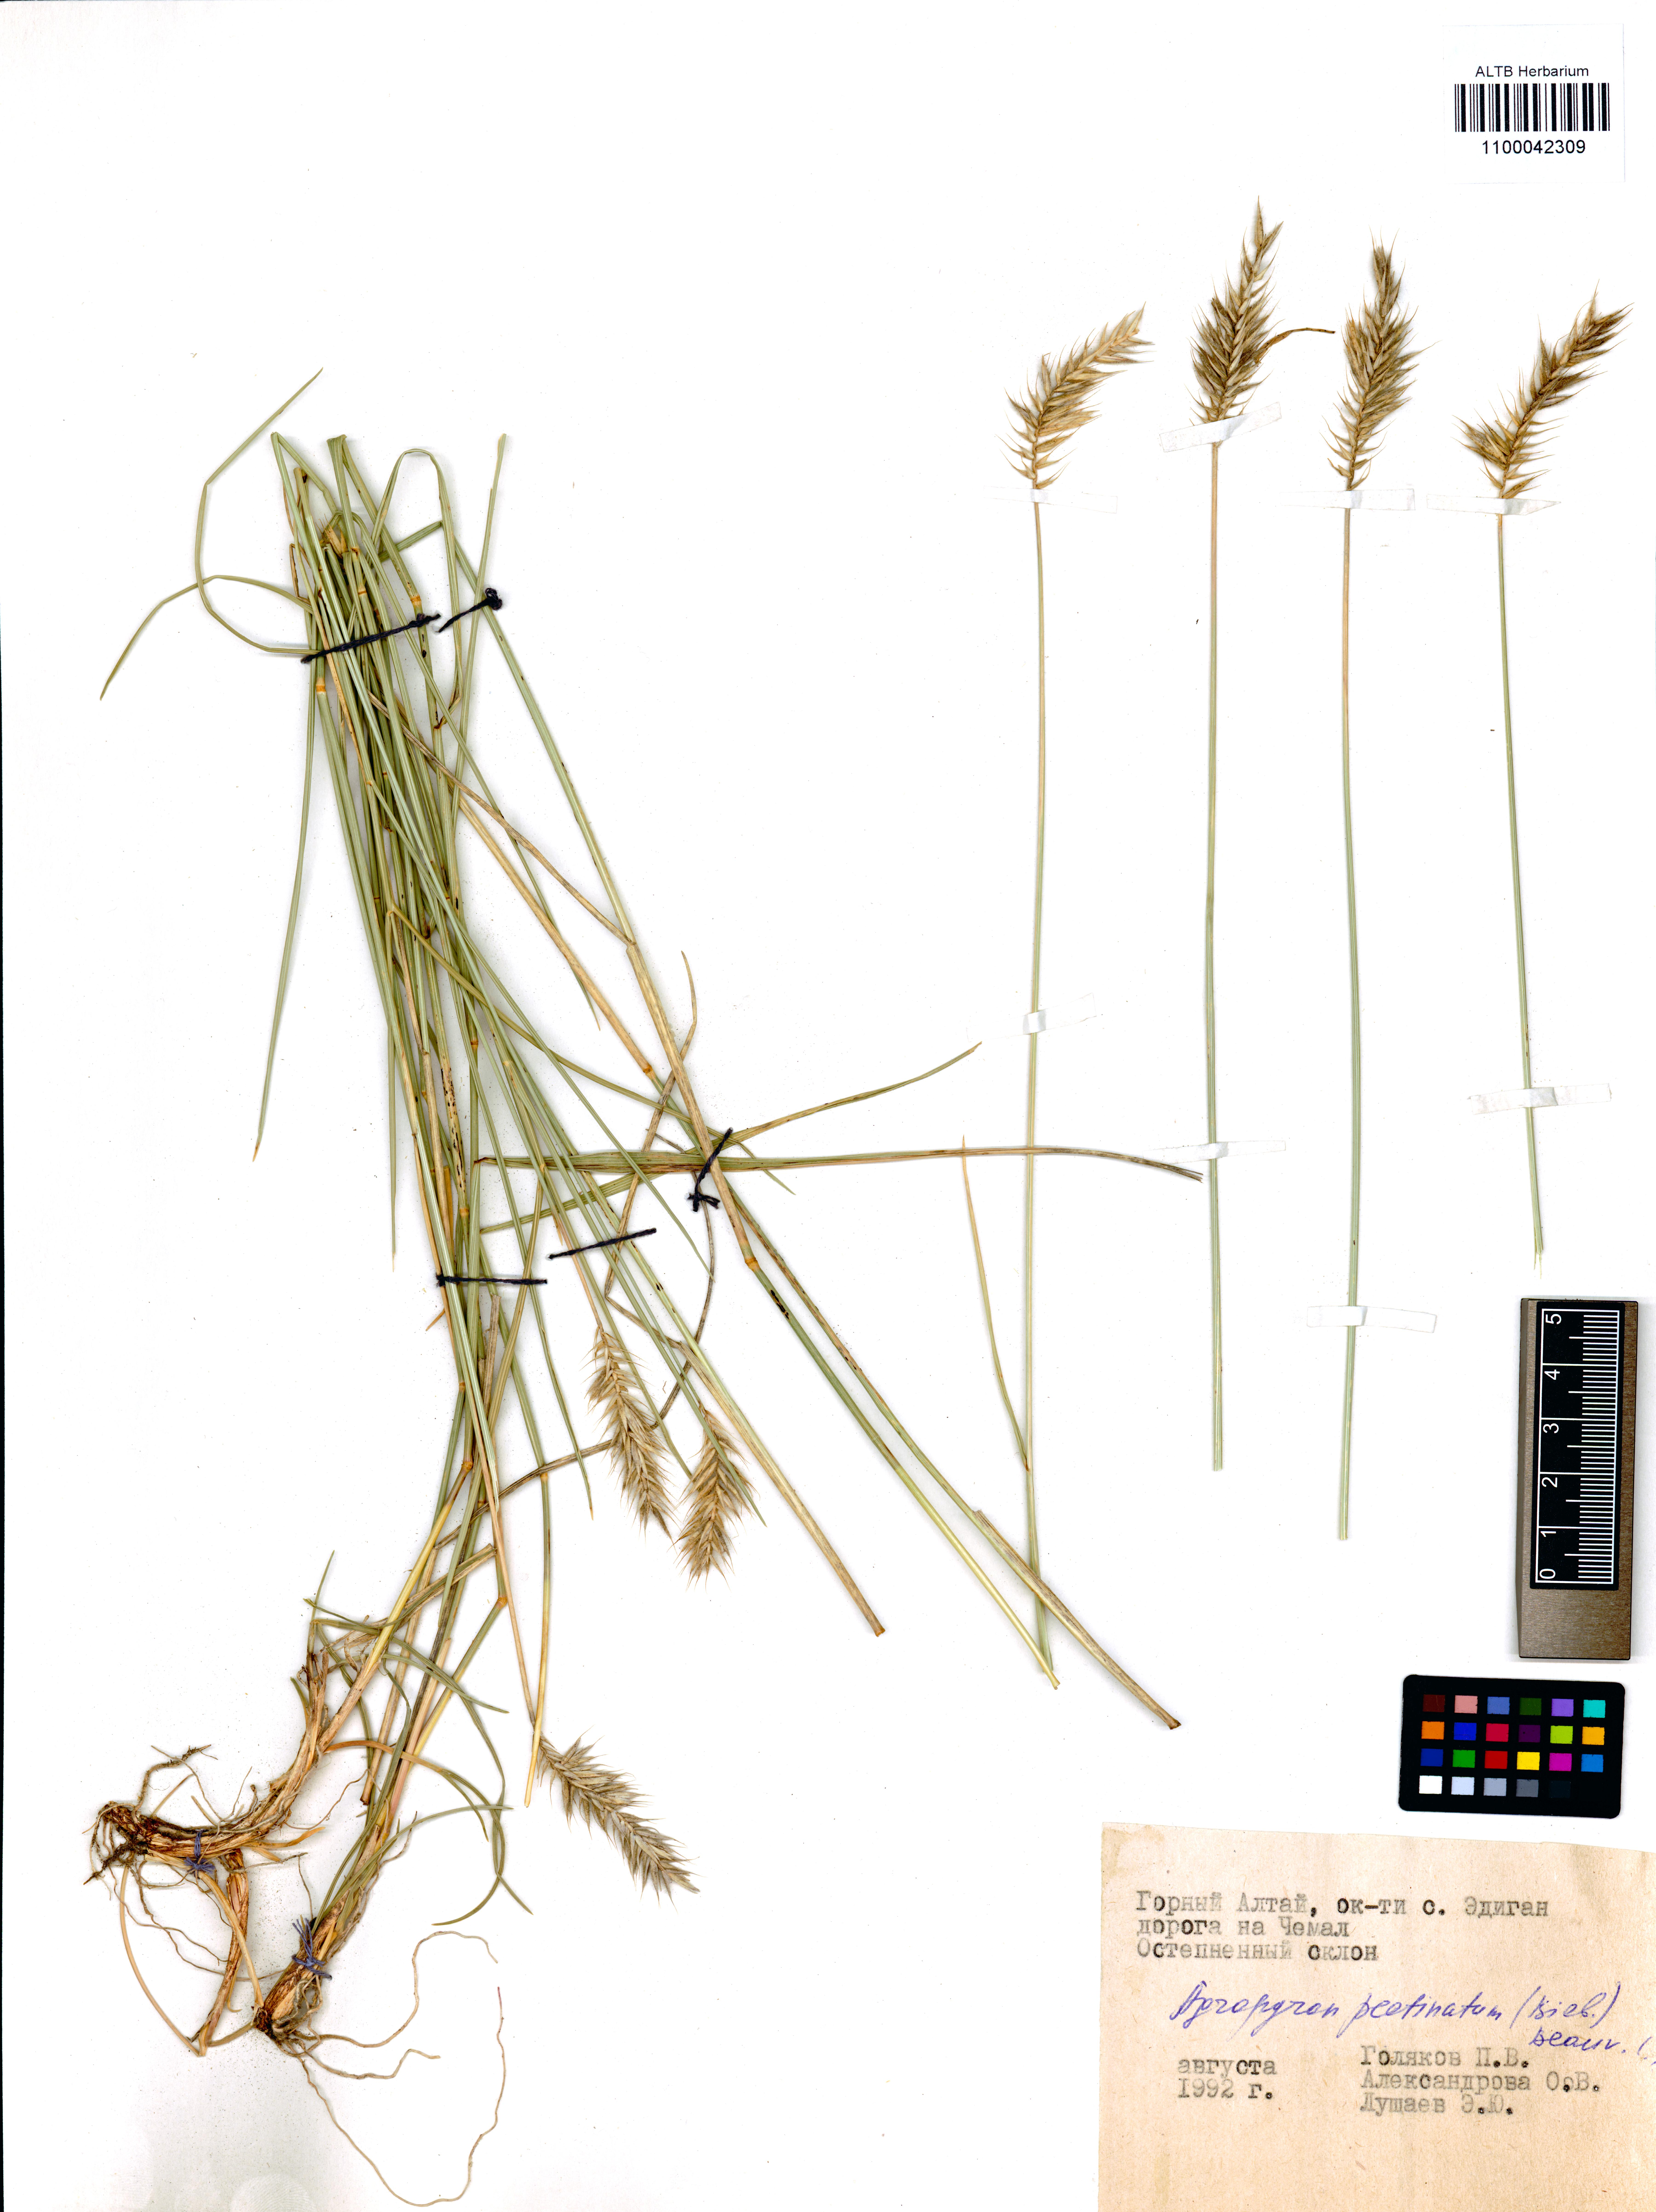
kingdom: Plantae
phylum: Tracheophyta
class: Liliopsida
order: Poales
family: Poaceae
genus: Agropyron
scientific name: Agropyron cristatum
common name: Crested wheatgrass
